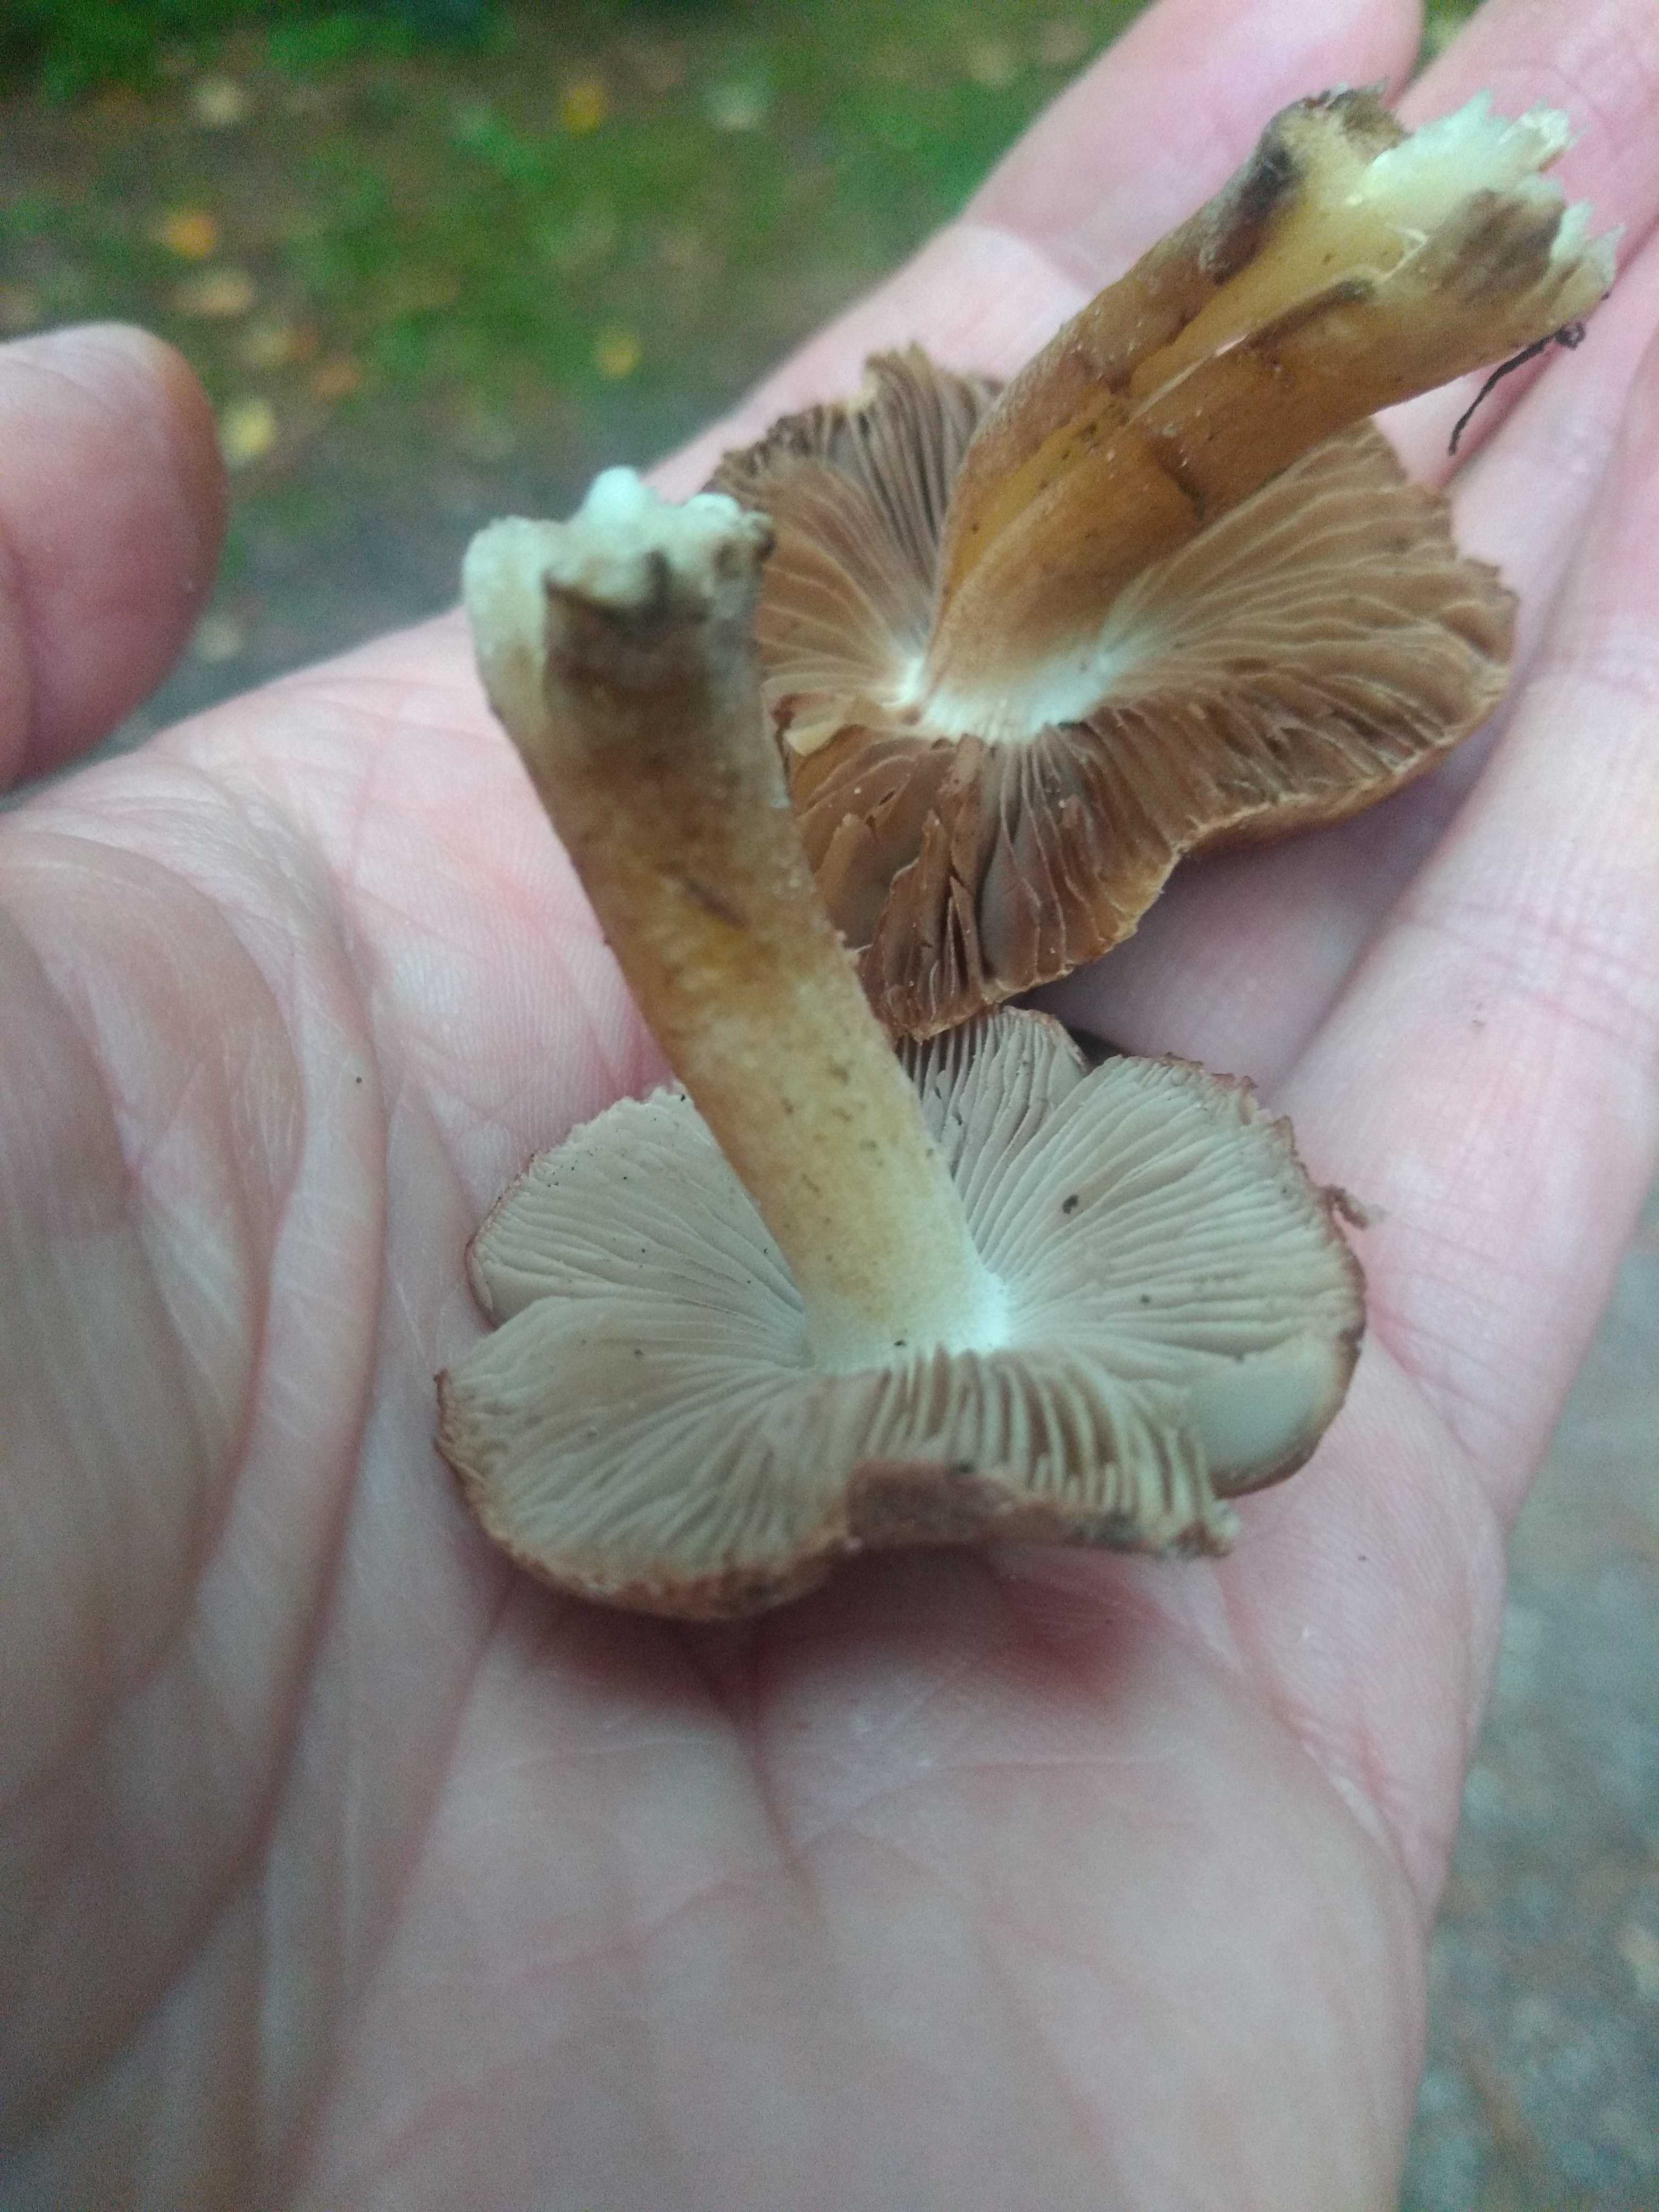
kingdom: Fungi
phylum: Basidiomycota
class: Agaricomycetes
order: Agaricales
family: Inocybaceae
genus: Inocybe
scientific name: Inocybe
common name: trævlhat
